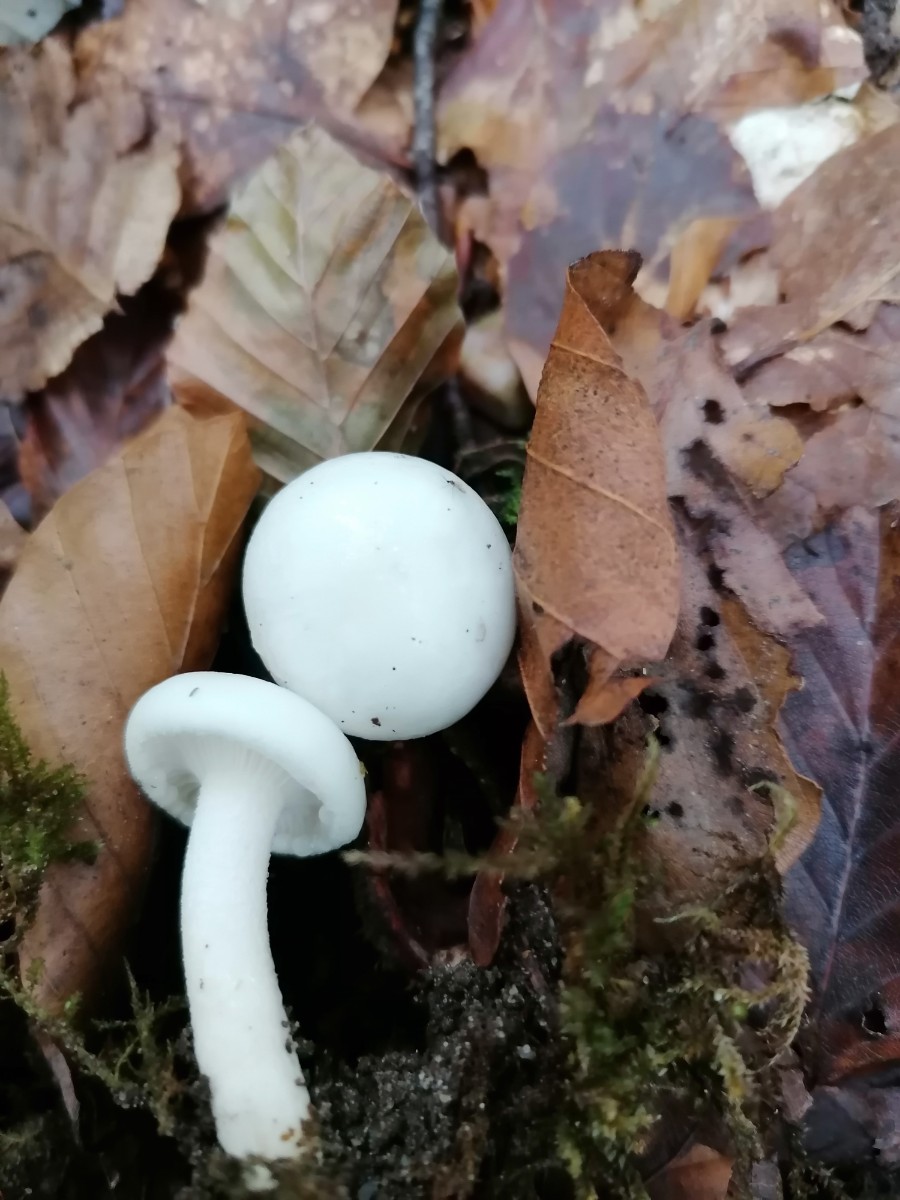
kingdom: Fungi
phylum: Basidiomycota
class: Agaricomycetes
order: Agaricales
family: Hygrophoraceae
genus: Hygrophorus
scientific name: Hygrophorus eburneus
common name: elfenbens-sneglehat
